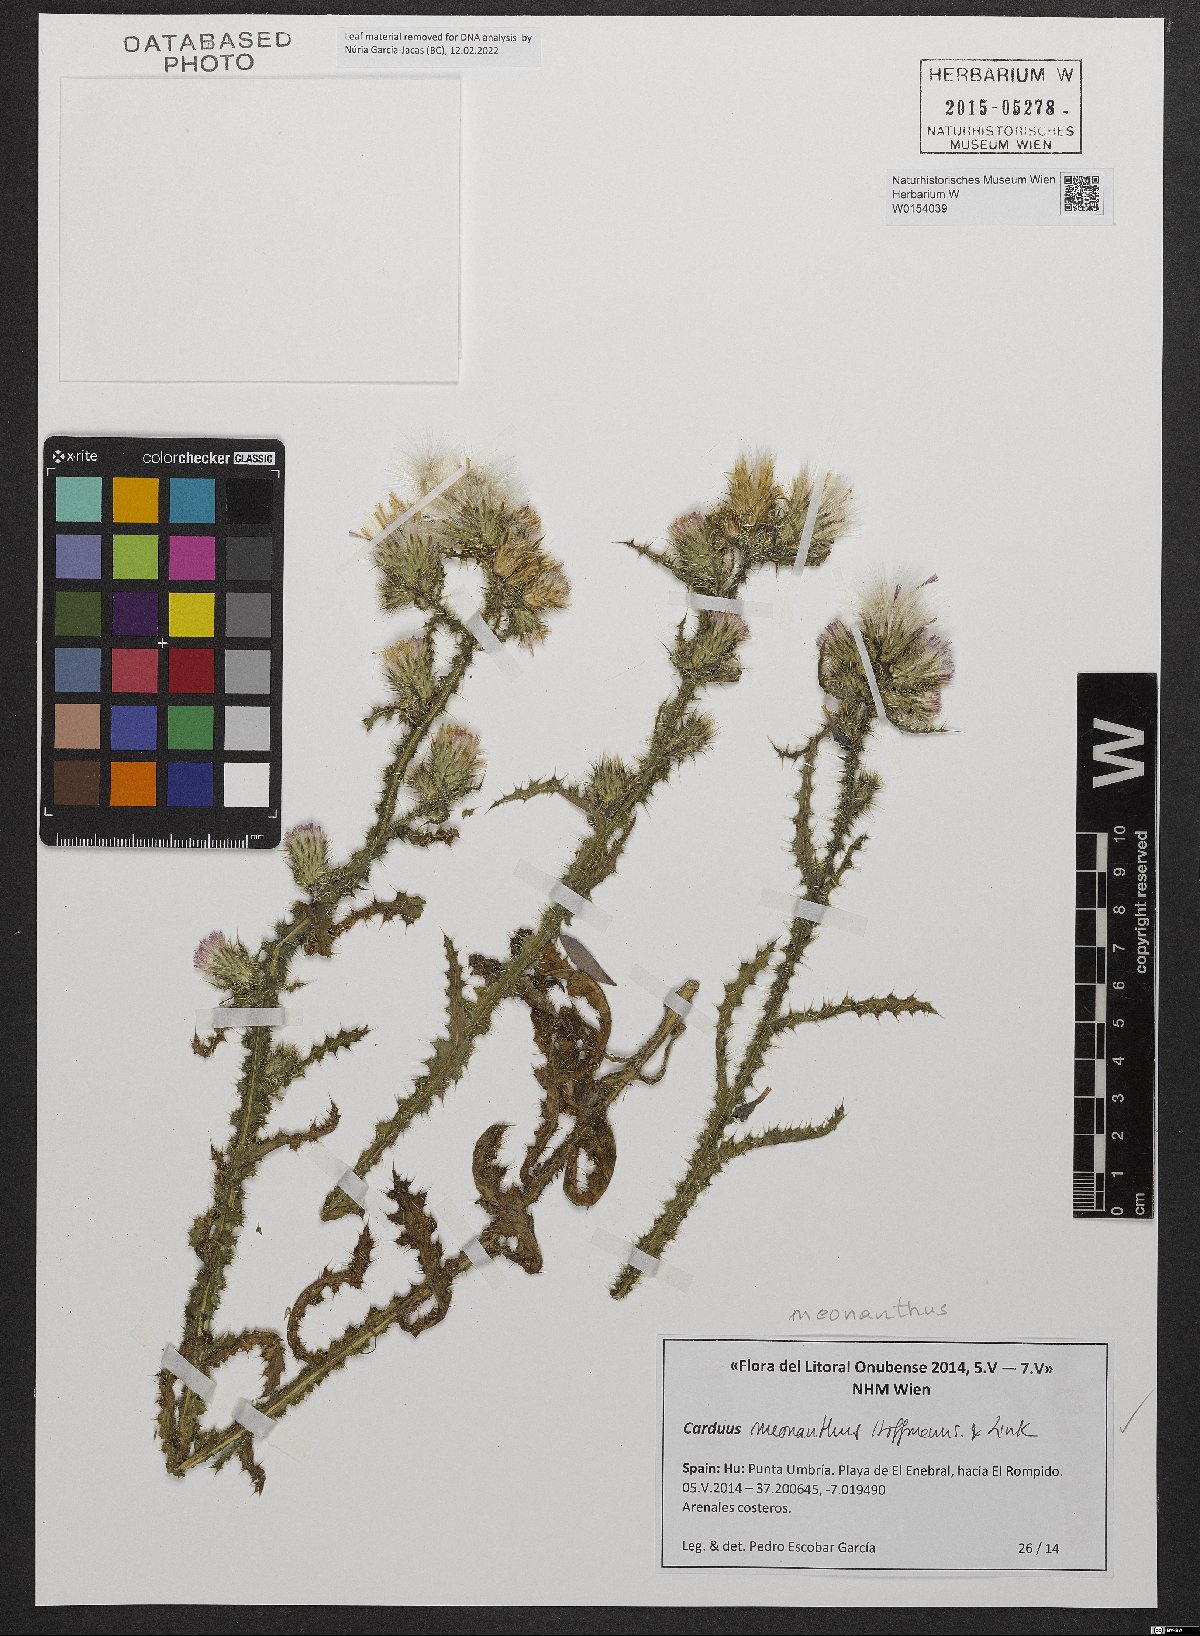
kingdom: Plantae
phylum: Tracheophyta
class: Magnoliopsida
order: Asterales
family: Asteraceae
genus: Carduus
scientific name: Carduus meonanthus
